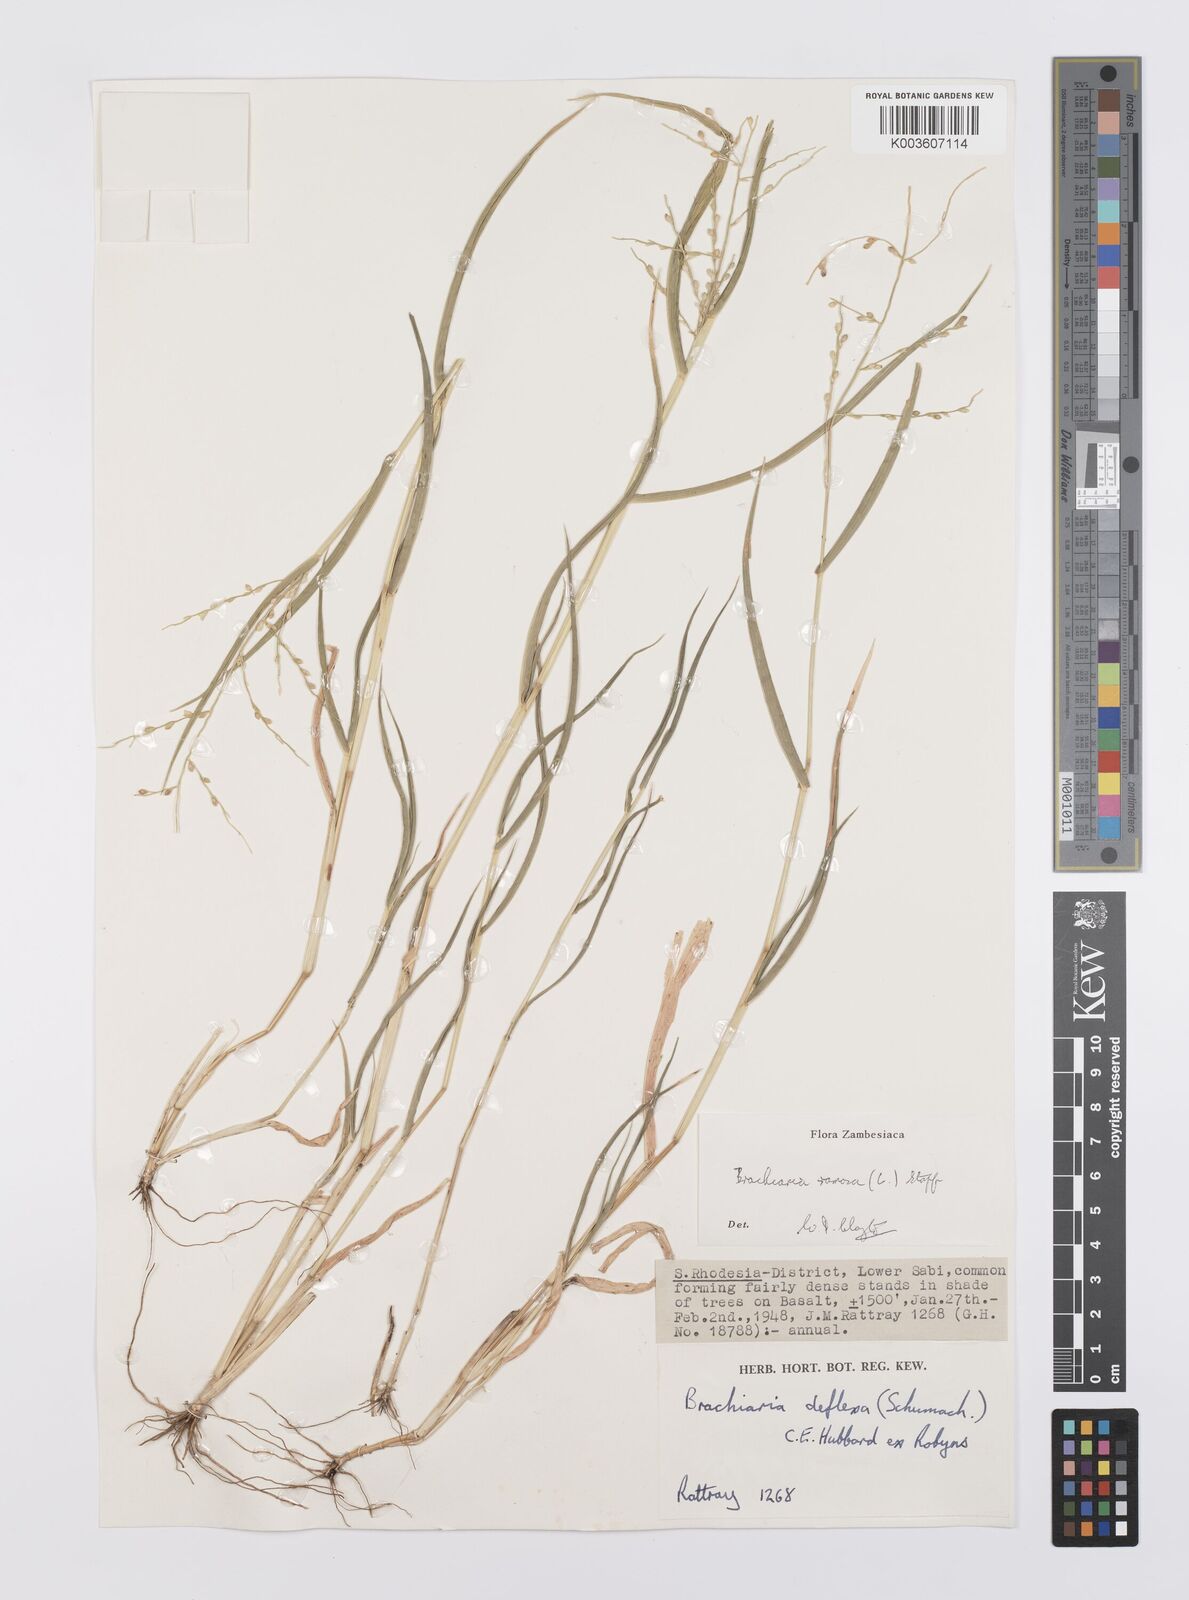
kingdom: Plantae
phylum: Tracheophyta
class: Liliopsida
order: Poales
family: Poaceae
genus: Urochloa
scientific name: Urochloa ramosa
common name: Browntop millet
